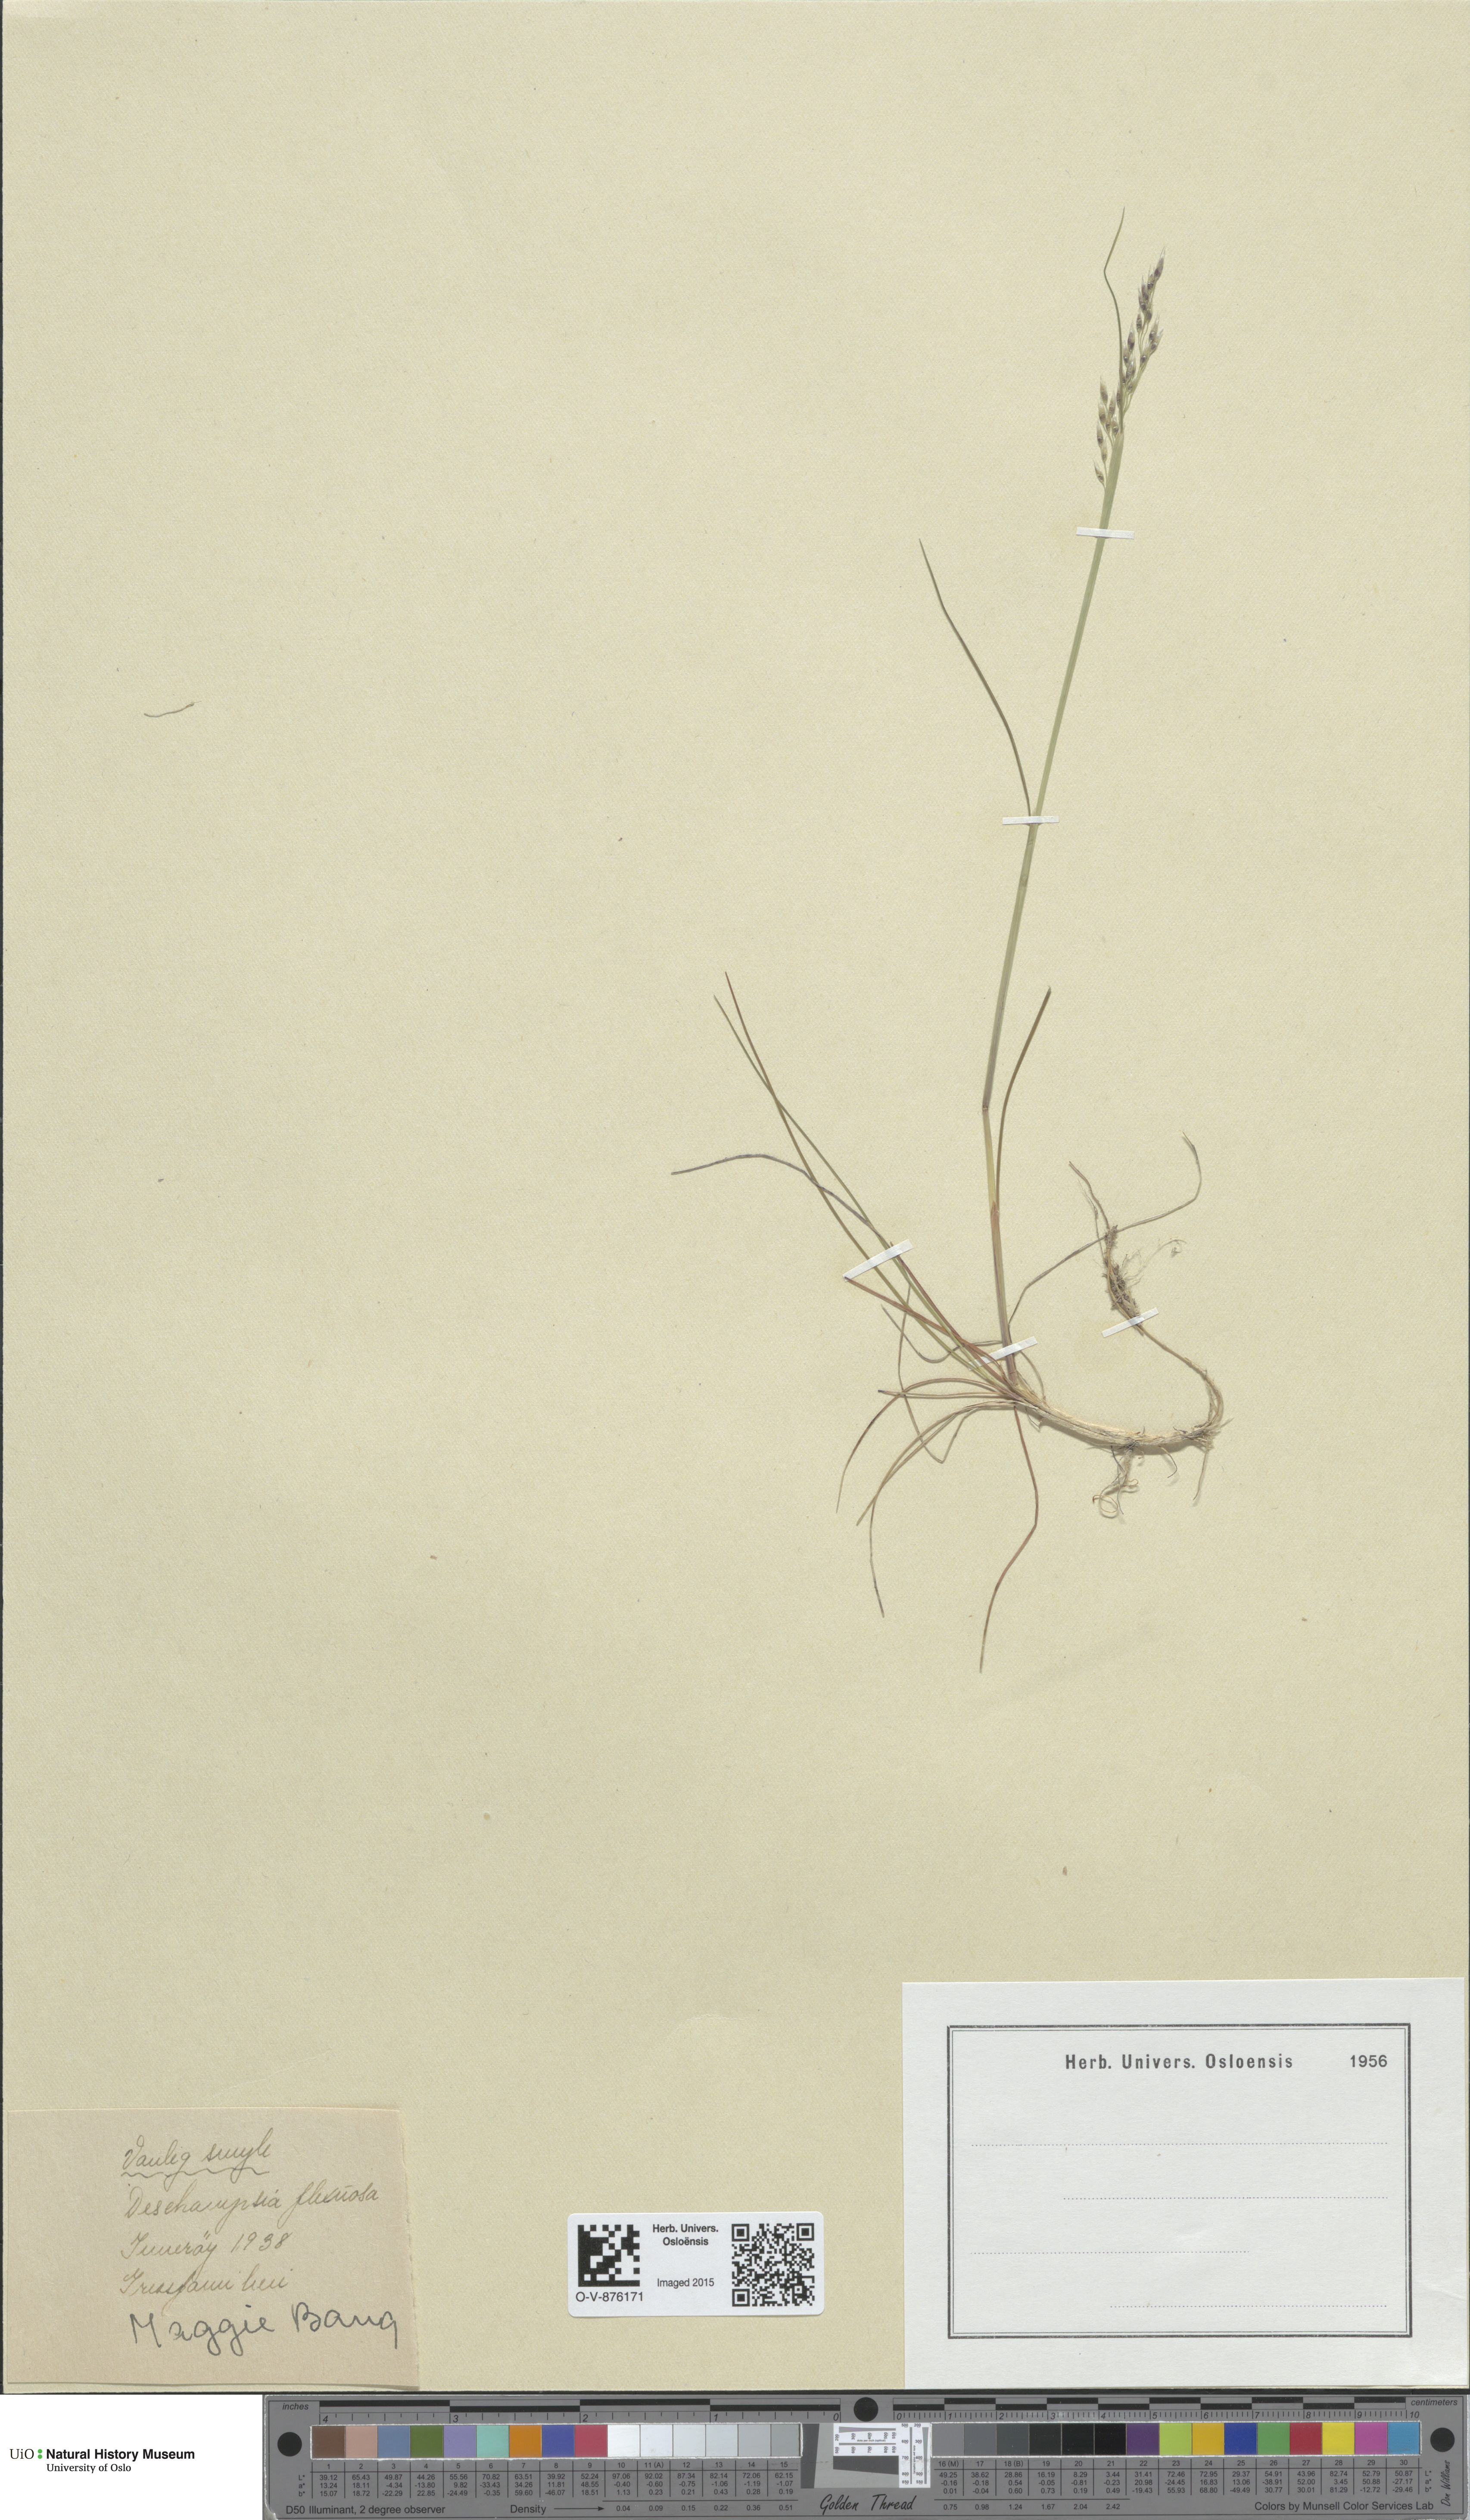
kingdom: Plantae
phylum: Tracheophyta
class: Liliopsida
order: Poales
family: Poaceae
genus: Avenella
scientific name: Avenella flexuosa
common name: Wavy hairgrass
